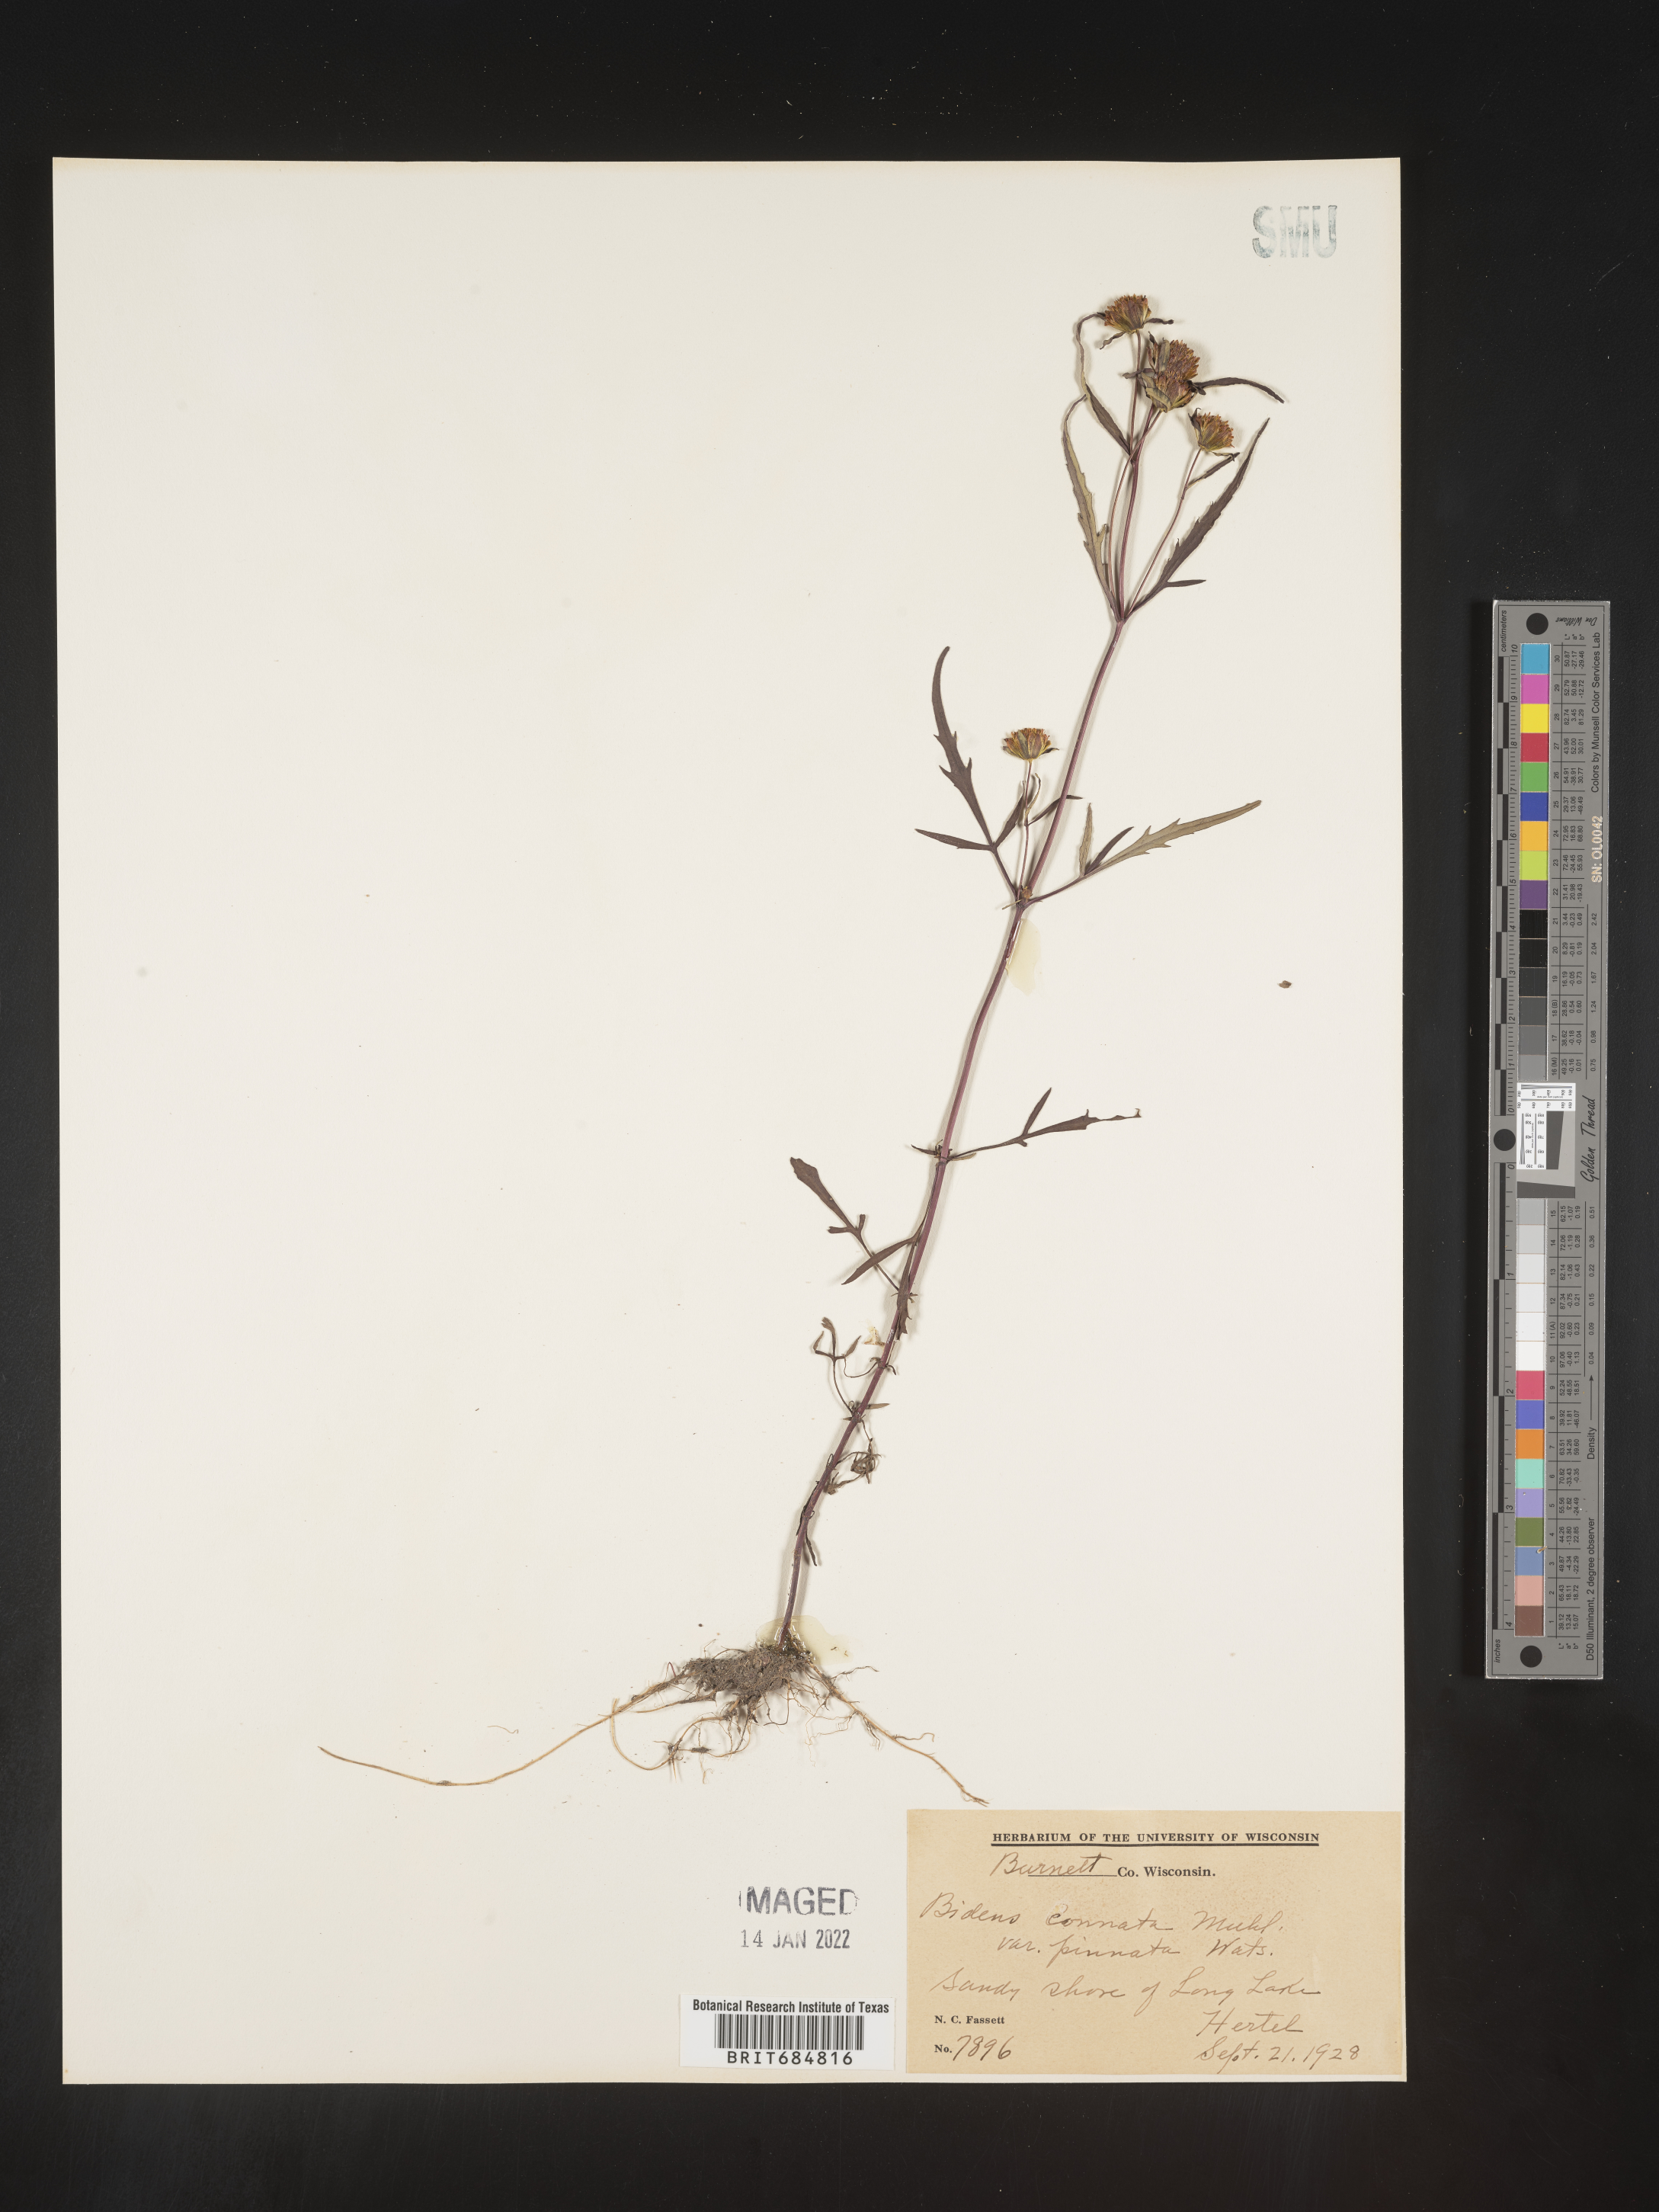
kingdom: Plantae
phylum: Tracheophyta
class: Magnoliopsida
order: Asterales
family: Asteraceae
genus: Bidens
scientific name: Bidens tripartita
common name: Trifid bur-marigold
